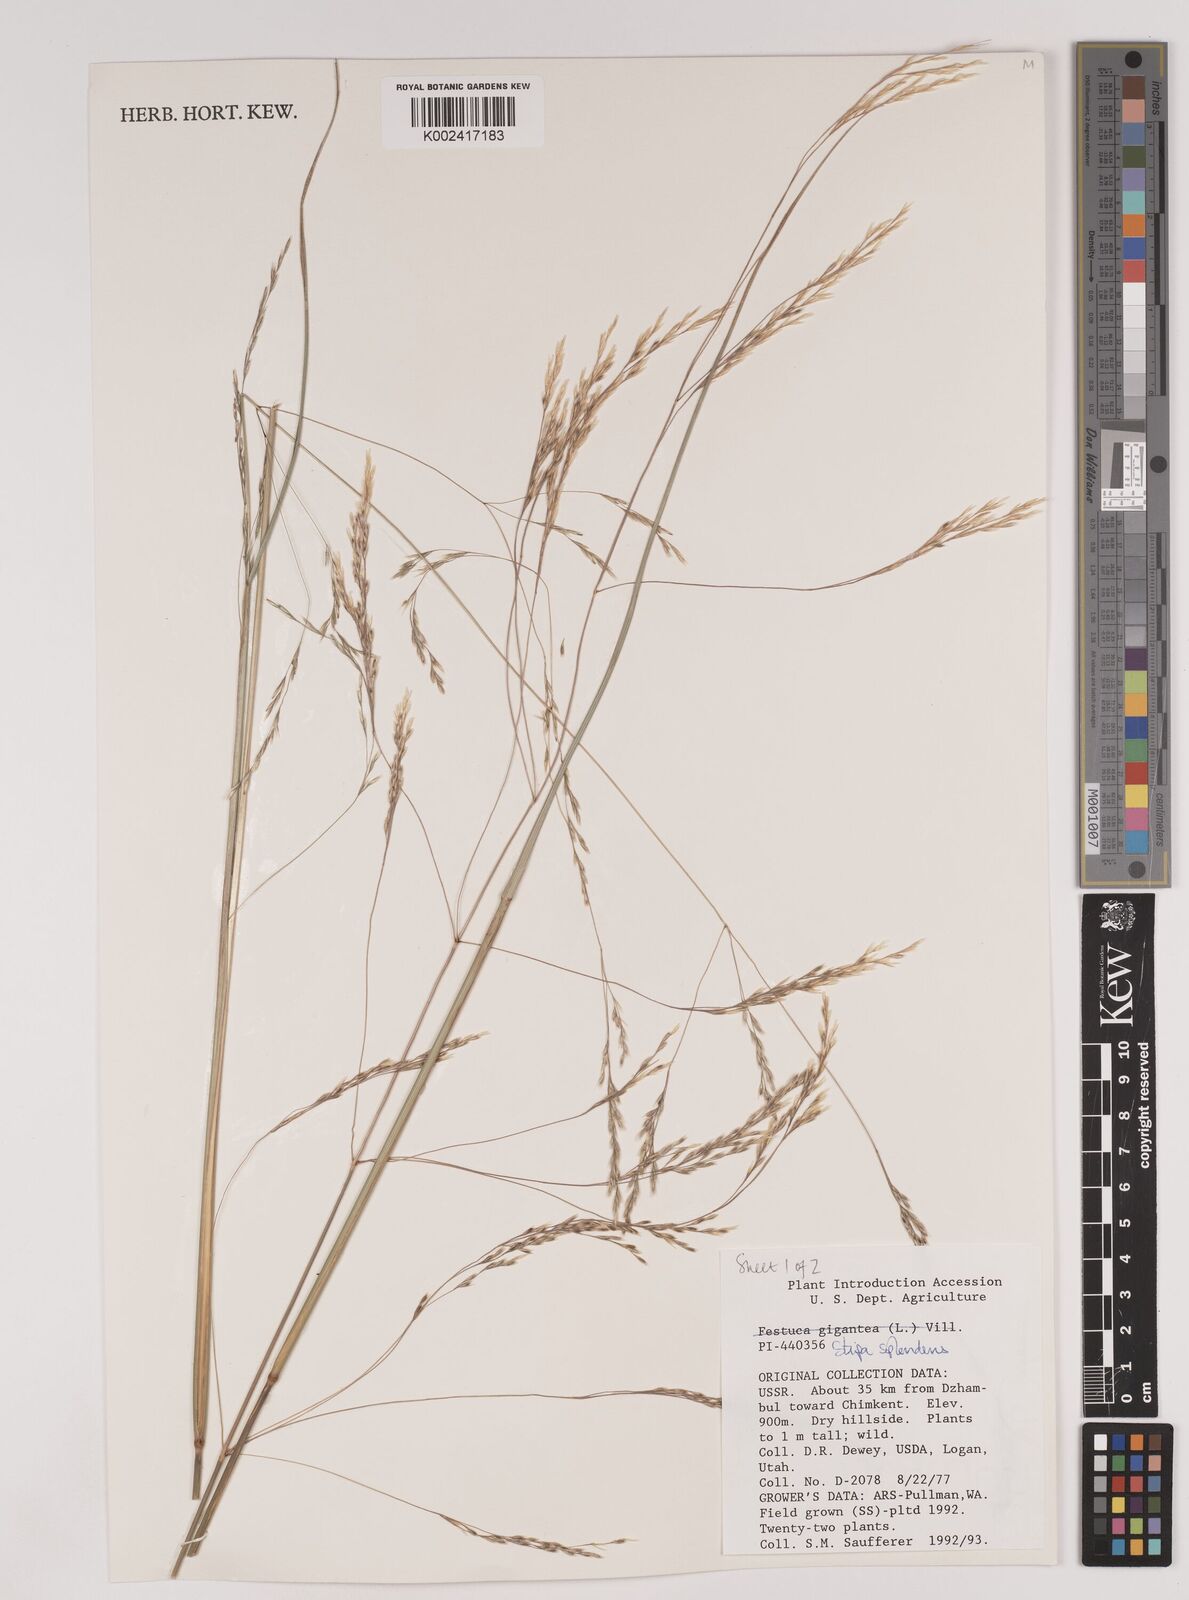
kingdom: Plantae
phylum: Tracheophyta
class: Liliopsida
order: Poales
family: Poaceae
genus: Neotrinia
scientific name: Neotrinia splendens
